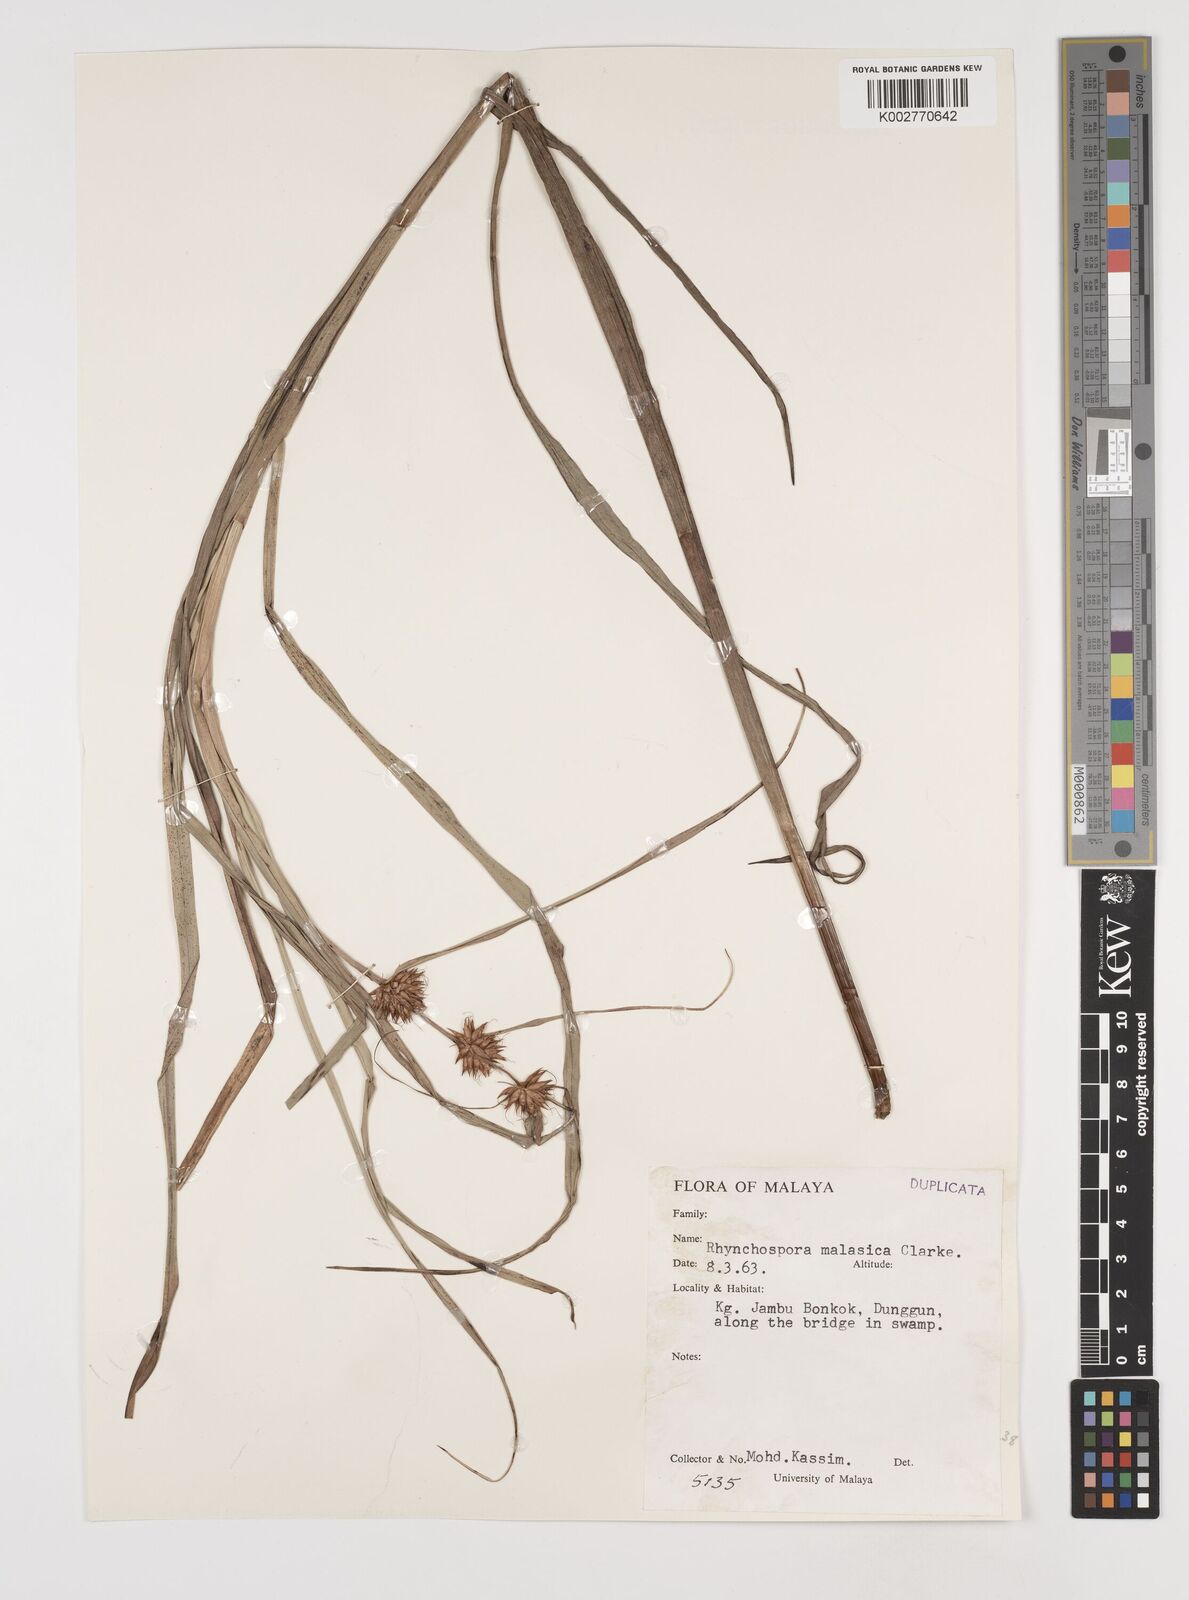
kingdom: Plantae
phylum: Tracheophyta
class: Liliopsida
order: Poales
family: Cyperaceae
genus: Rhynchospora
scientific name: Rhynchospora malasica
